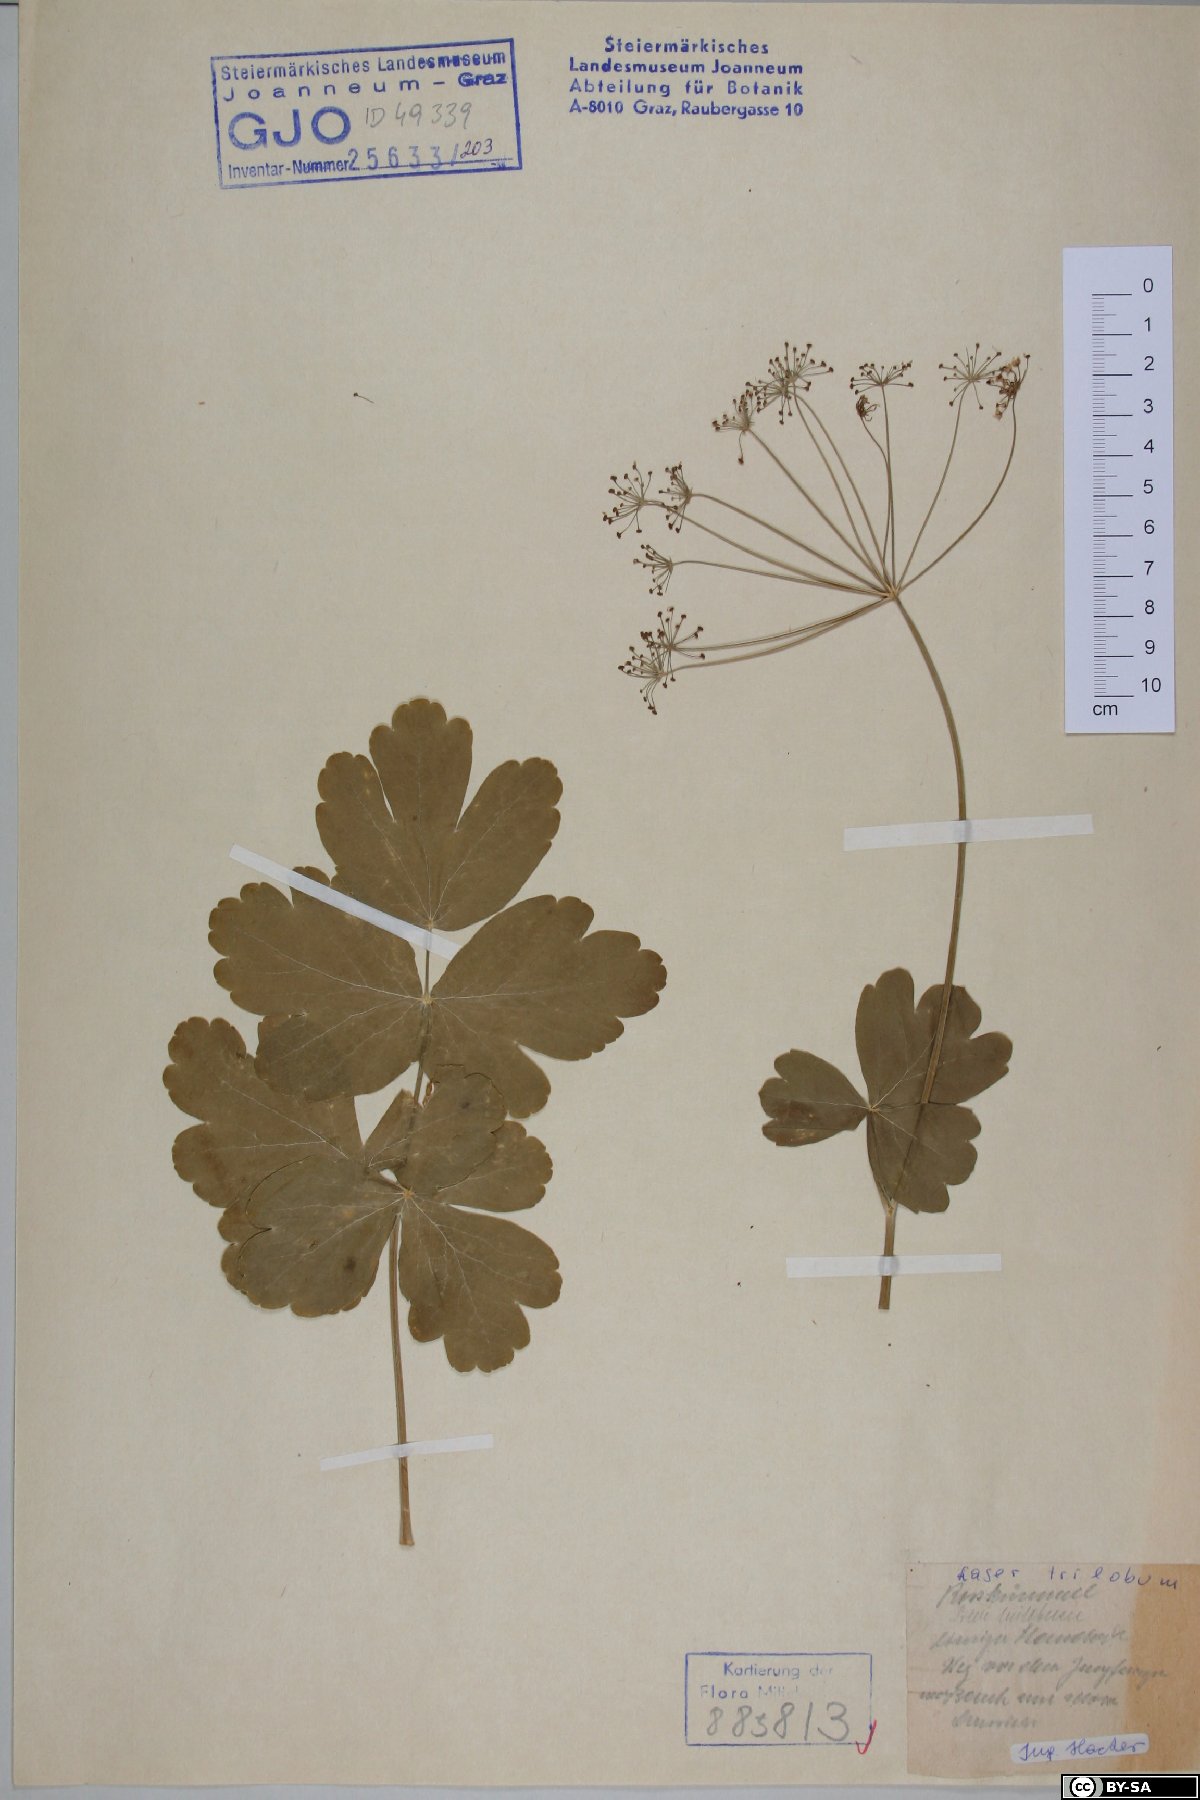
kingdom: Plantae
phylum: Tracheophyta
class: Magnoliopsida
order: Apiales
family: Apiaceae
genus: Laser
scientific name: Laser trilobum
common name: Laser
